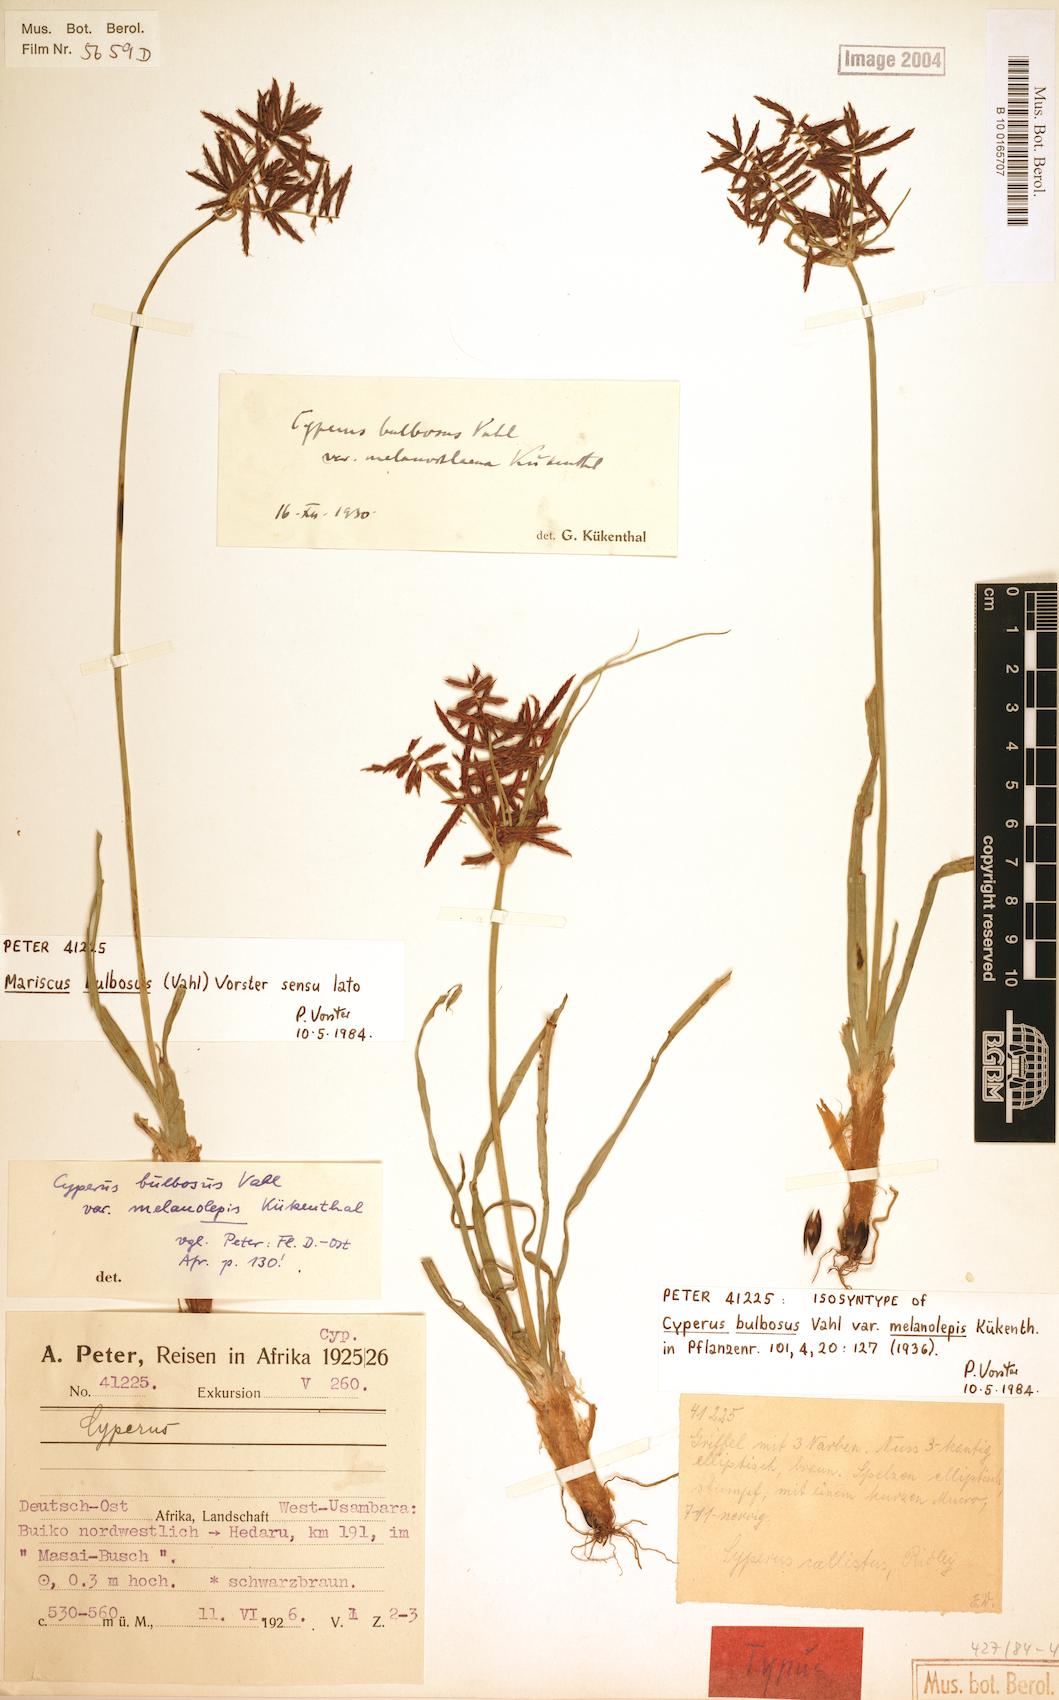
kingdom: Plantae
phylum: Tracheophyta
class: Liliopsida
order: Poales
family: Cyperaceae
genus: Cyperus
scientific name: Cyperus bulbosus
